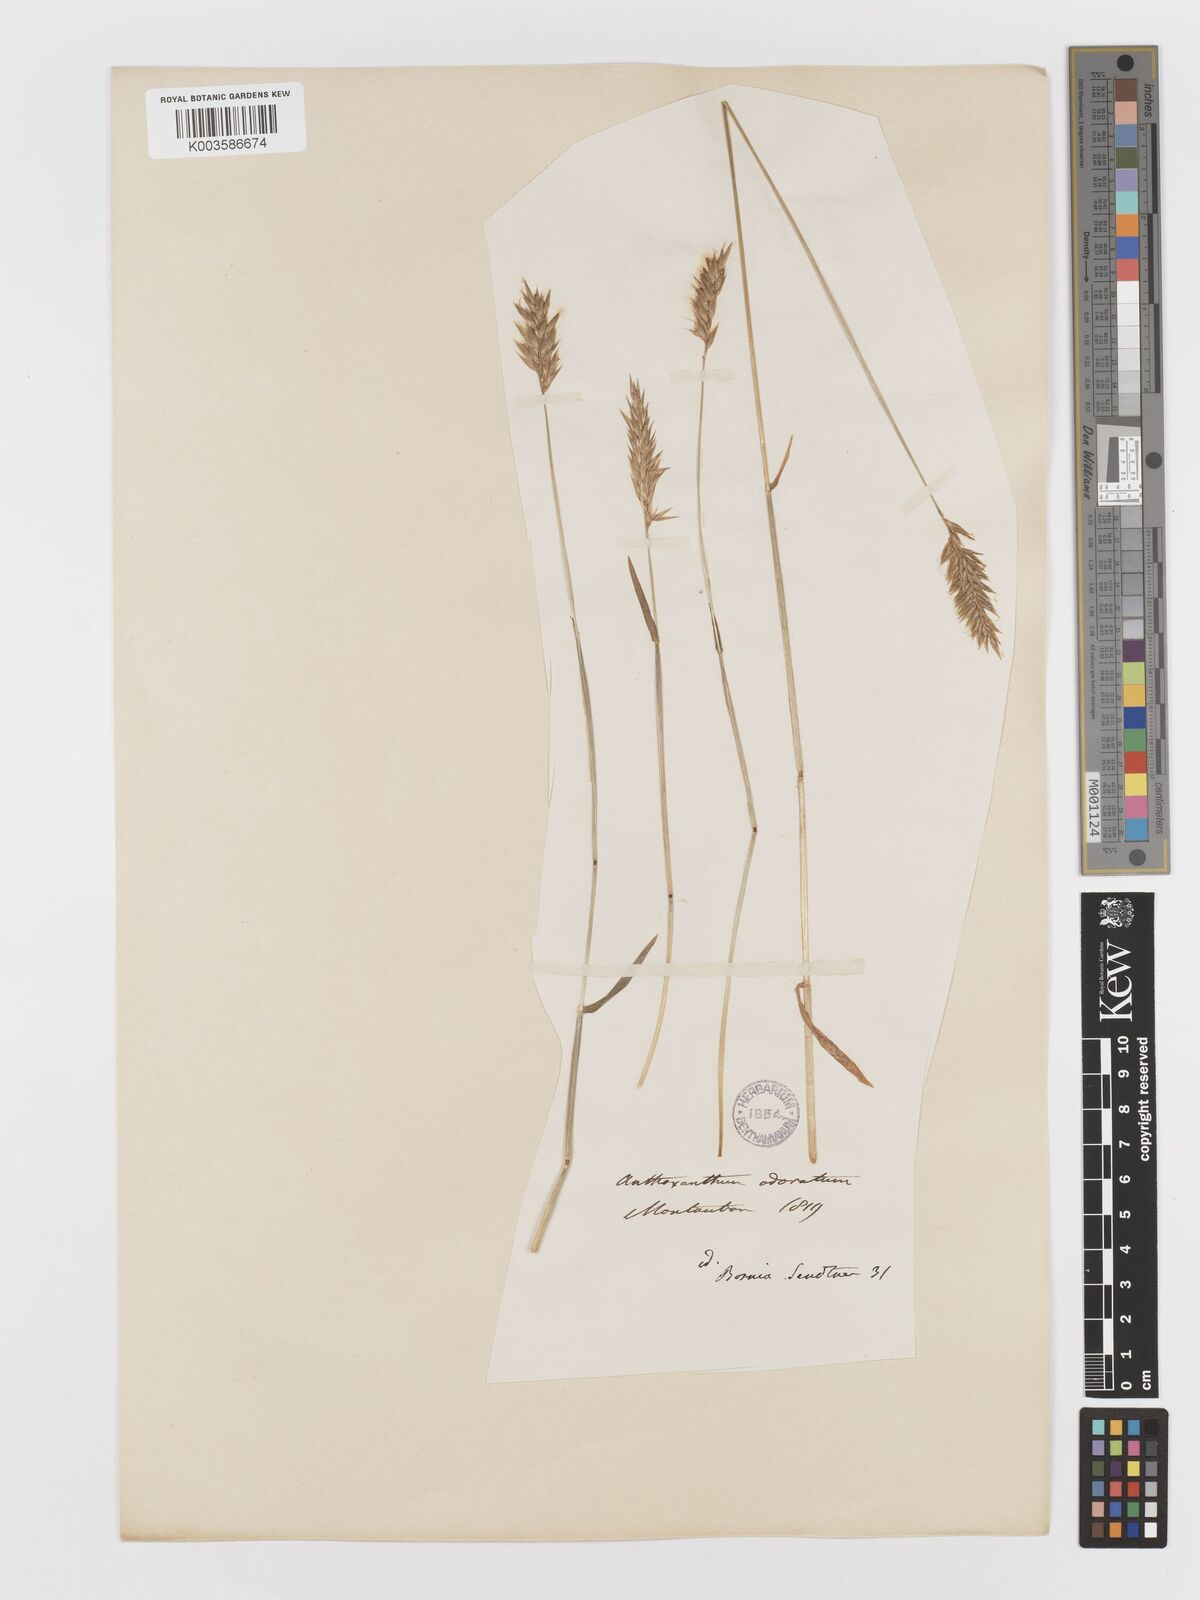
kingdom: Plantae
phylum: Tracheophyta
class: Liliopsida
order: Poales
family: Poaceae
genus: Anthoxanthum
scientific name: Anthoxanthum odoratum
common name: Sweet vernalgrass
